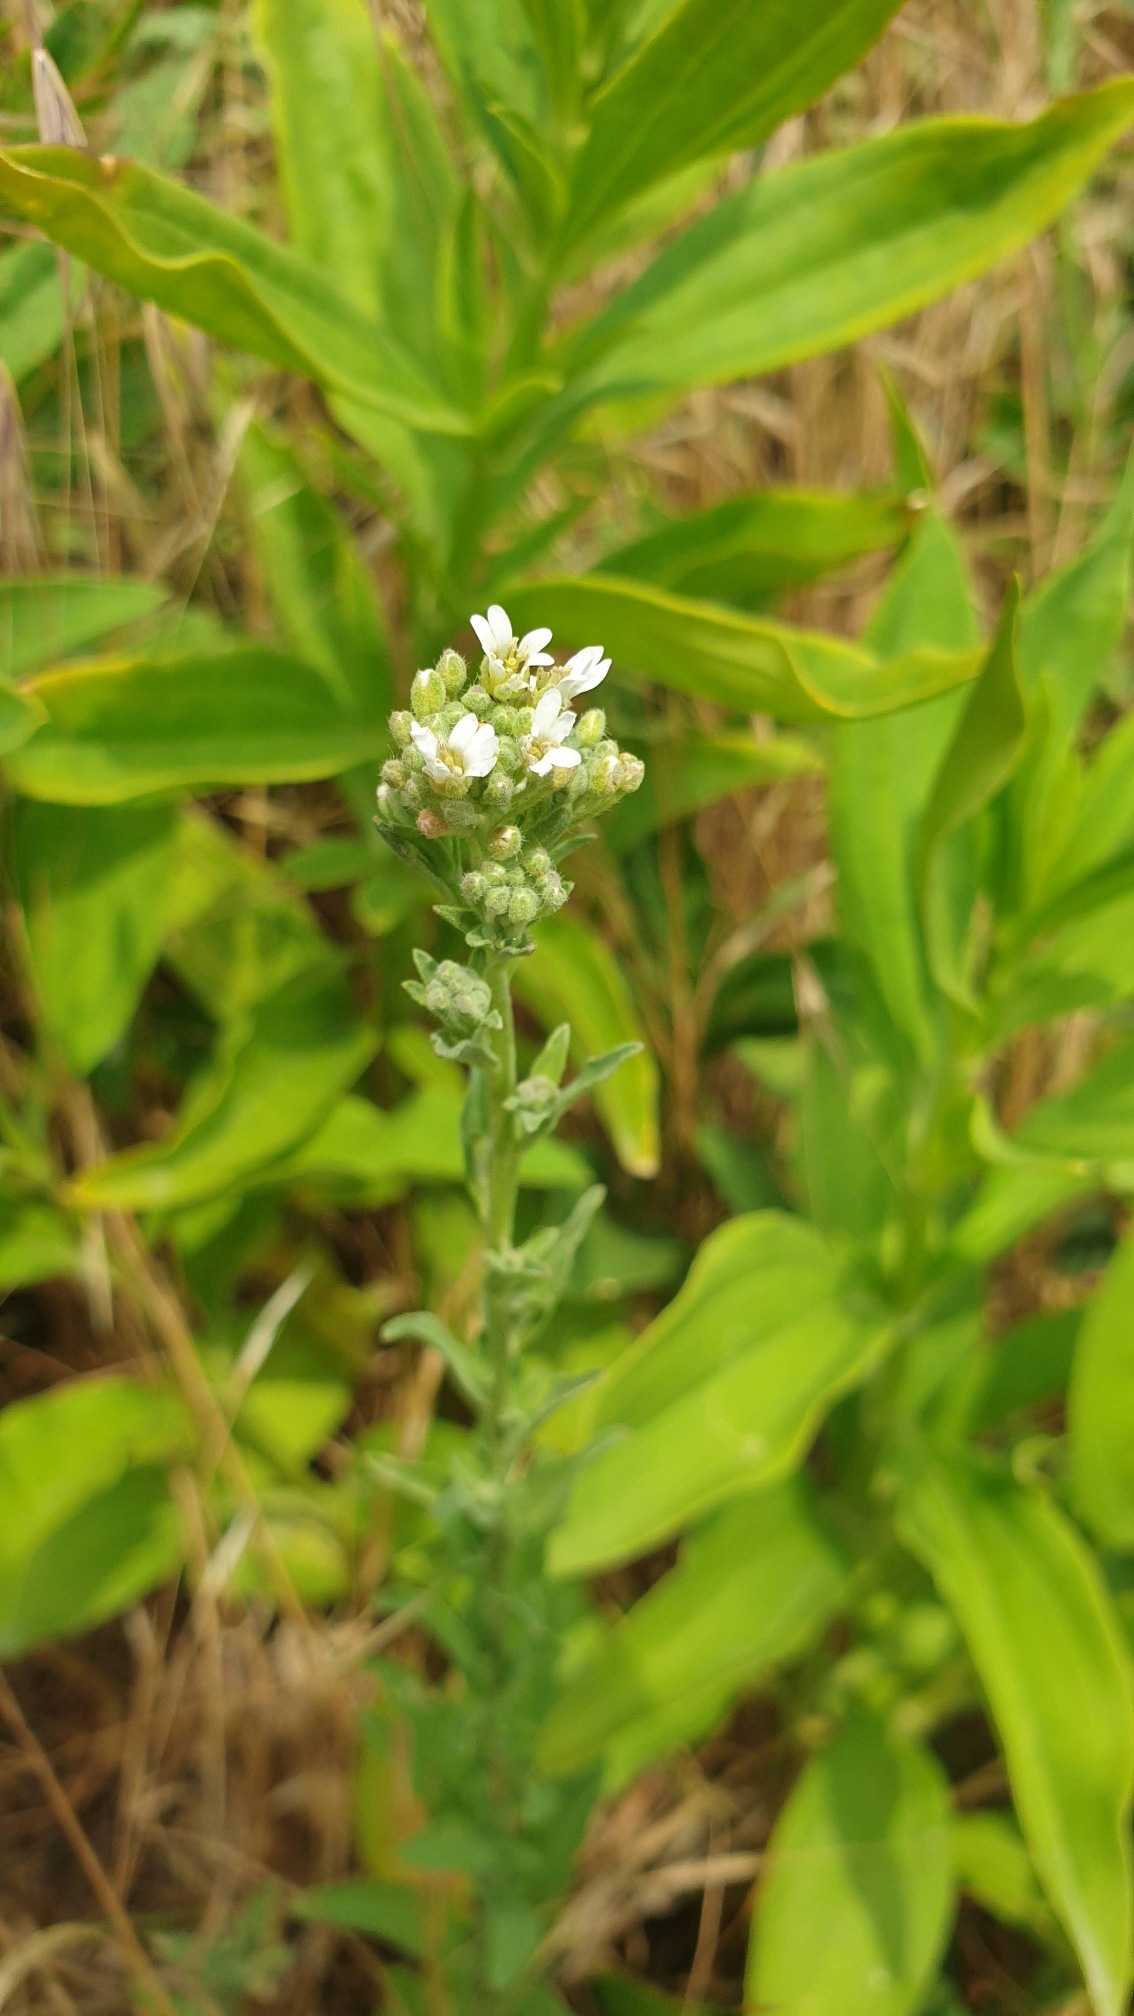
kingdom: Plantae
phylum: Tracheophyta
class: Magnoliopsida
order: Brassicales
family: Brassicaceae
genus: Berteroa
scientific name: Berteroa incana
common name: Kløvplade
